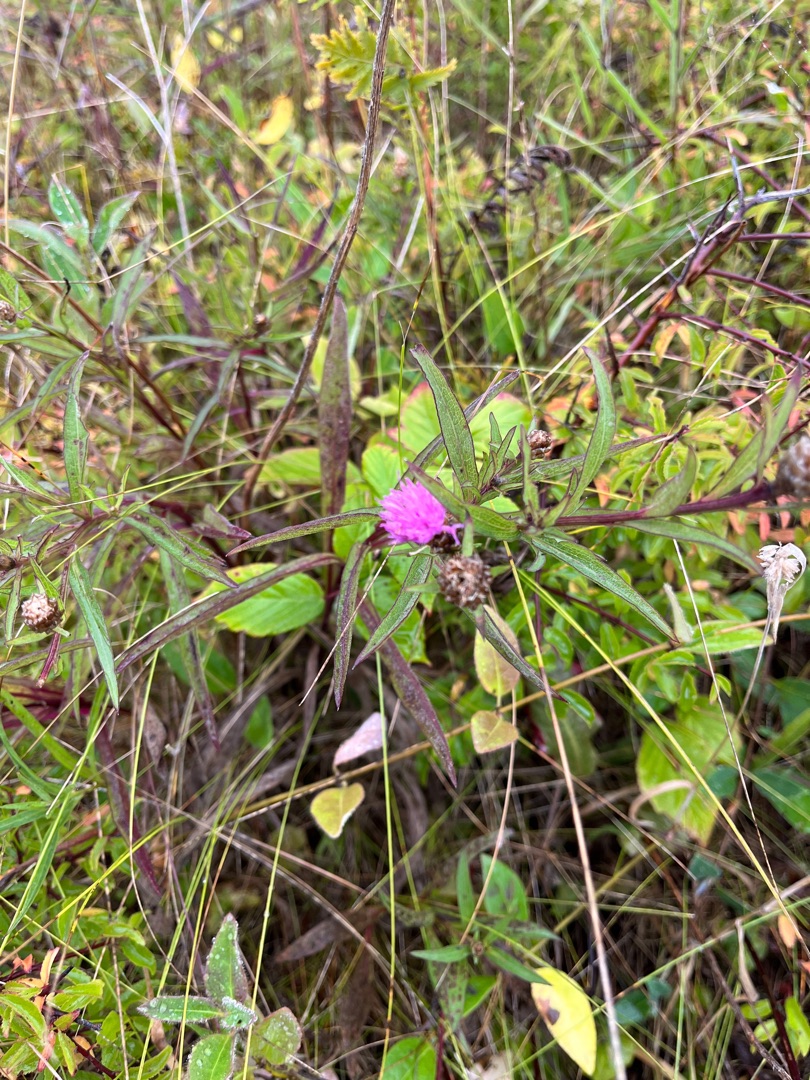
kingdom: Plantae
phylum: Tracheophyta
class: Magnoliopsida
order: Asterales
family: Asteraceae
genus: Centaurea
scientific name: Centaurea jacea
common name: Almindelig knopurt
